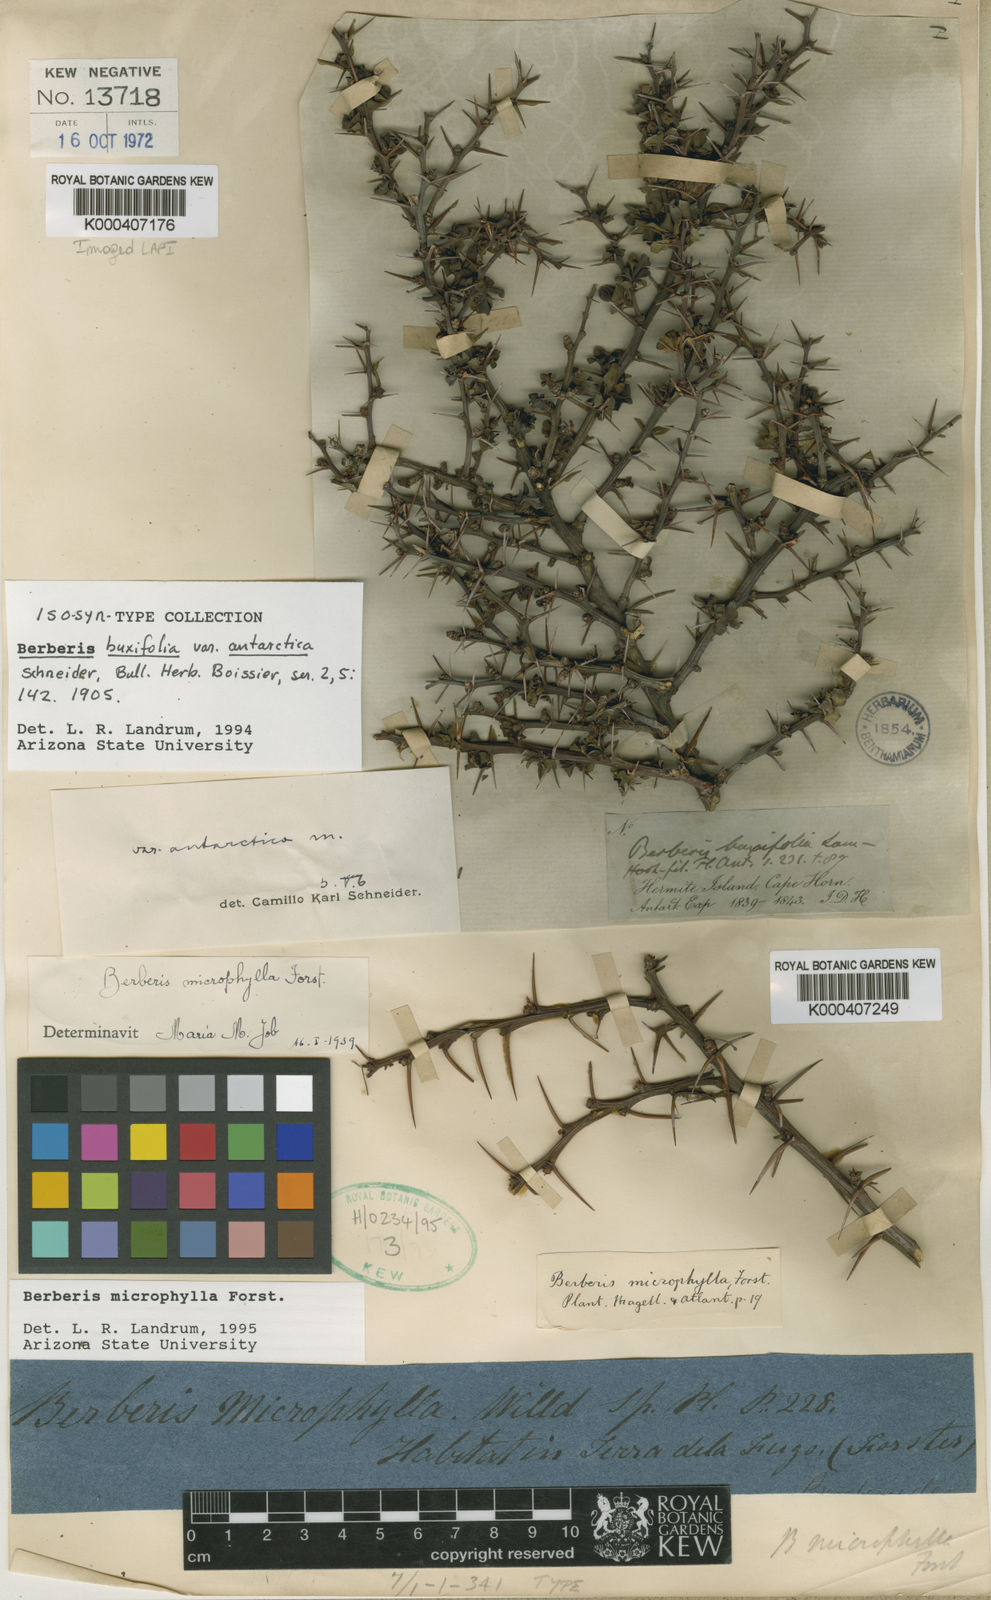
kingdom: Plantae
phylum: Tracheophyta
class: Magnoliopsida
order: Ranunculales
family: Berberidaceae
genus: Berberis
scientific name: Berberis microphylla
